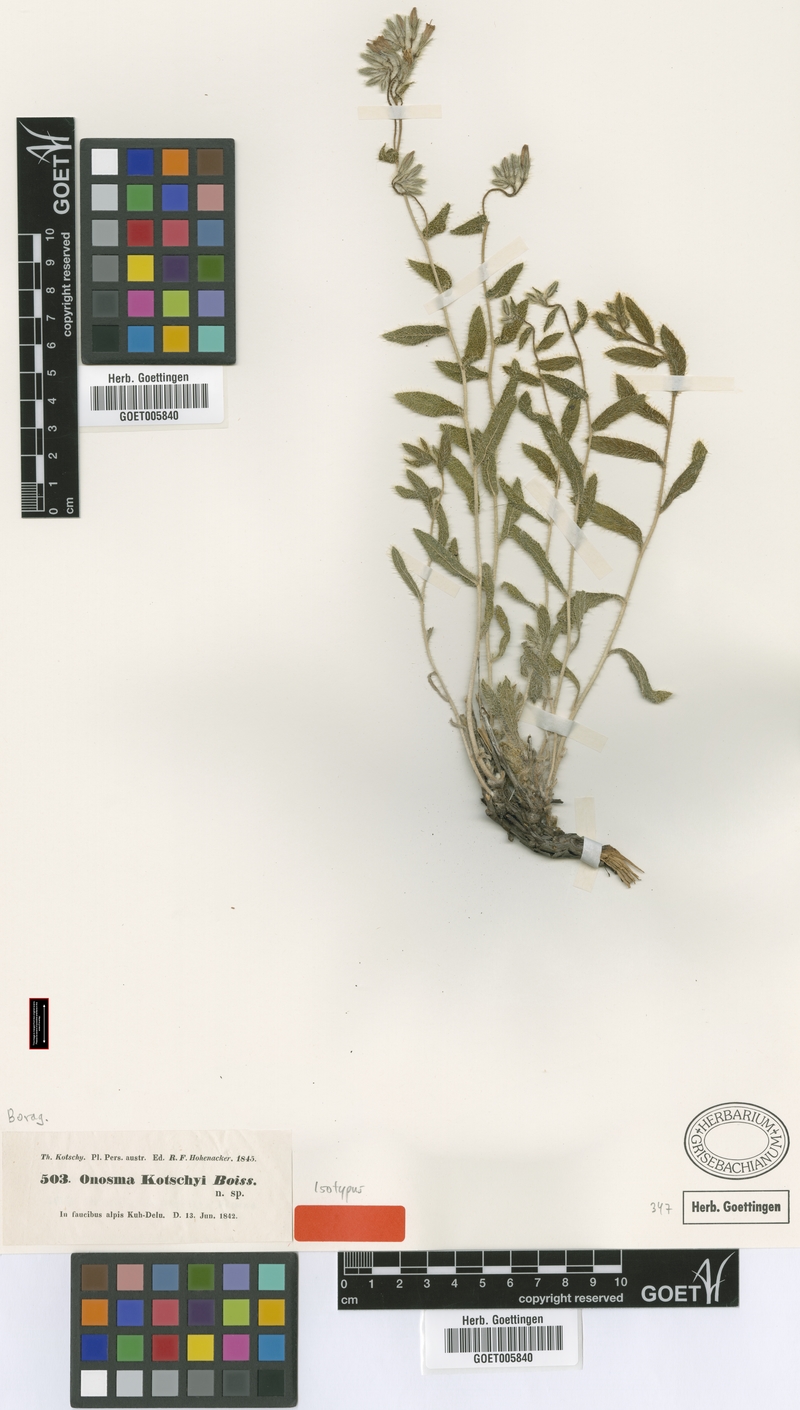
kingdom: Plantae
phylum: Tracheophyta
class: Magnoliopsida
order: Boraginales
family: Boraginaceae
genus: Onosma
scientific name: Onosma kotschyi
